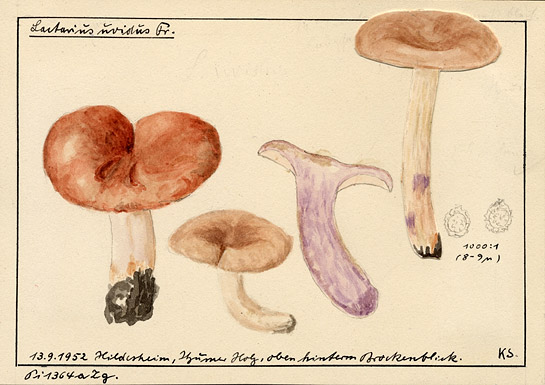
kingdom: Fungi
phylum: Basidiomycota
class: Agaricomycetes
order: Russulales
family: Russulaceae
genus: Lactarius
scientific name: Lactarius uvidus
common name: Shiner milkcap
